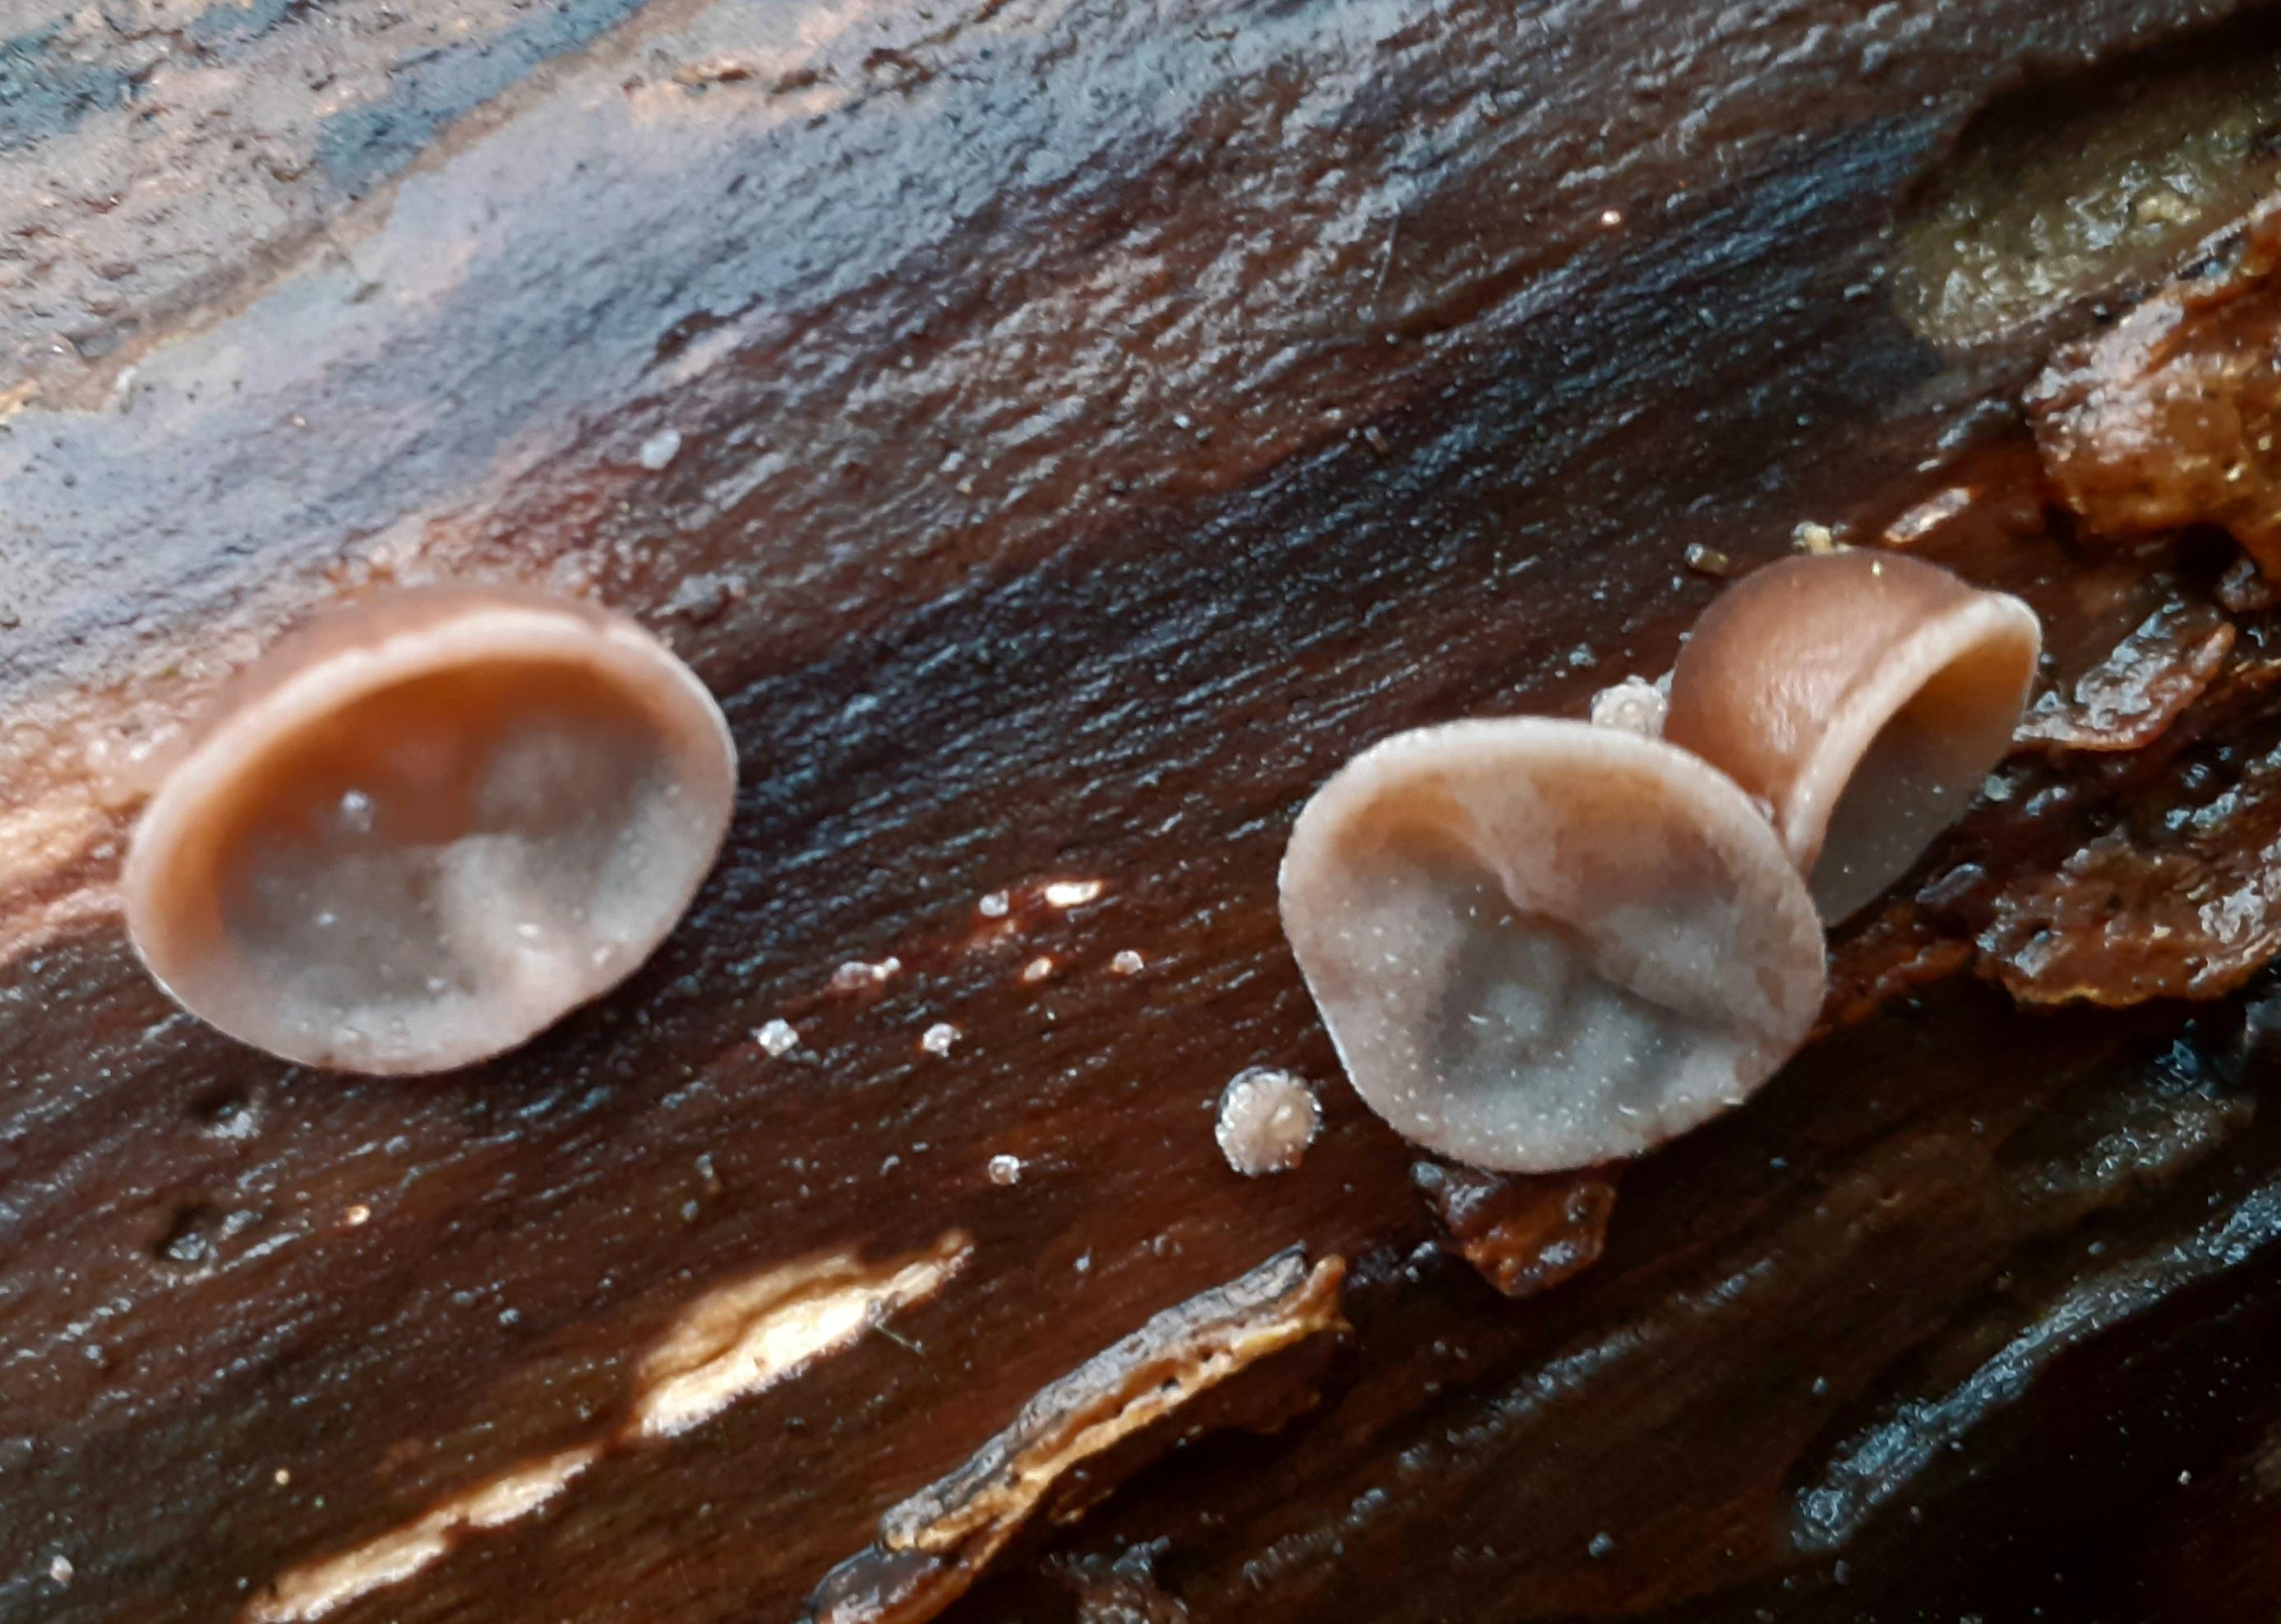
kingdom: Fungi
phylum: Basidiomycota
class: Agaricomycetes
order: Auriculariales
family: Auriculariaceae
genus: Auricularia
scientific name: Auricularia auricula-judae
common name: almindelig judasøre
